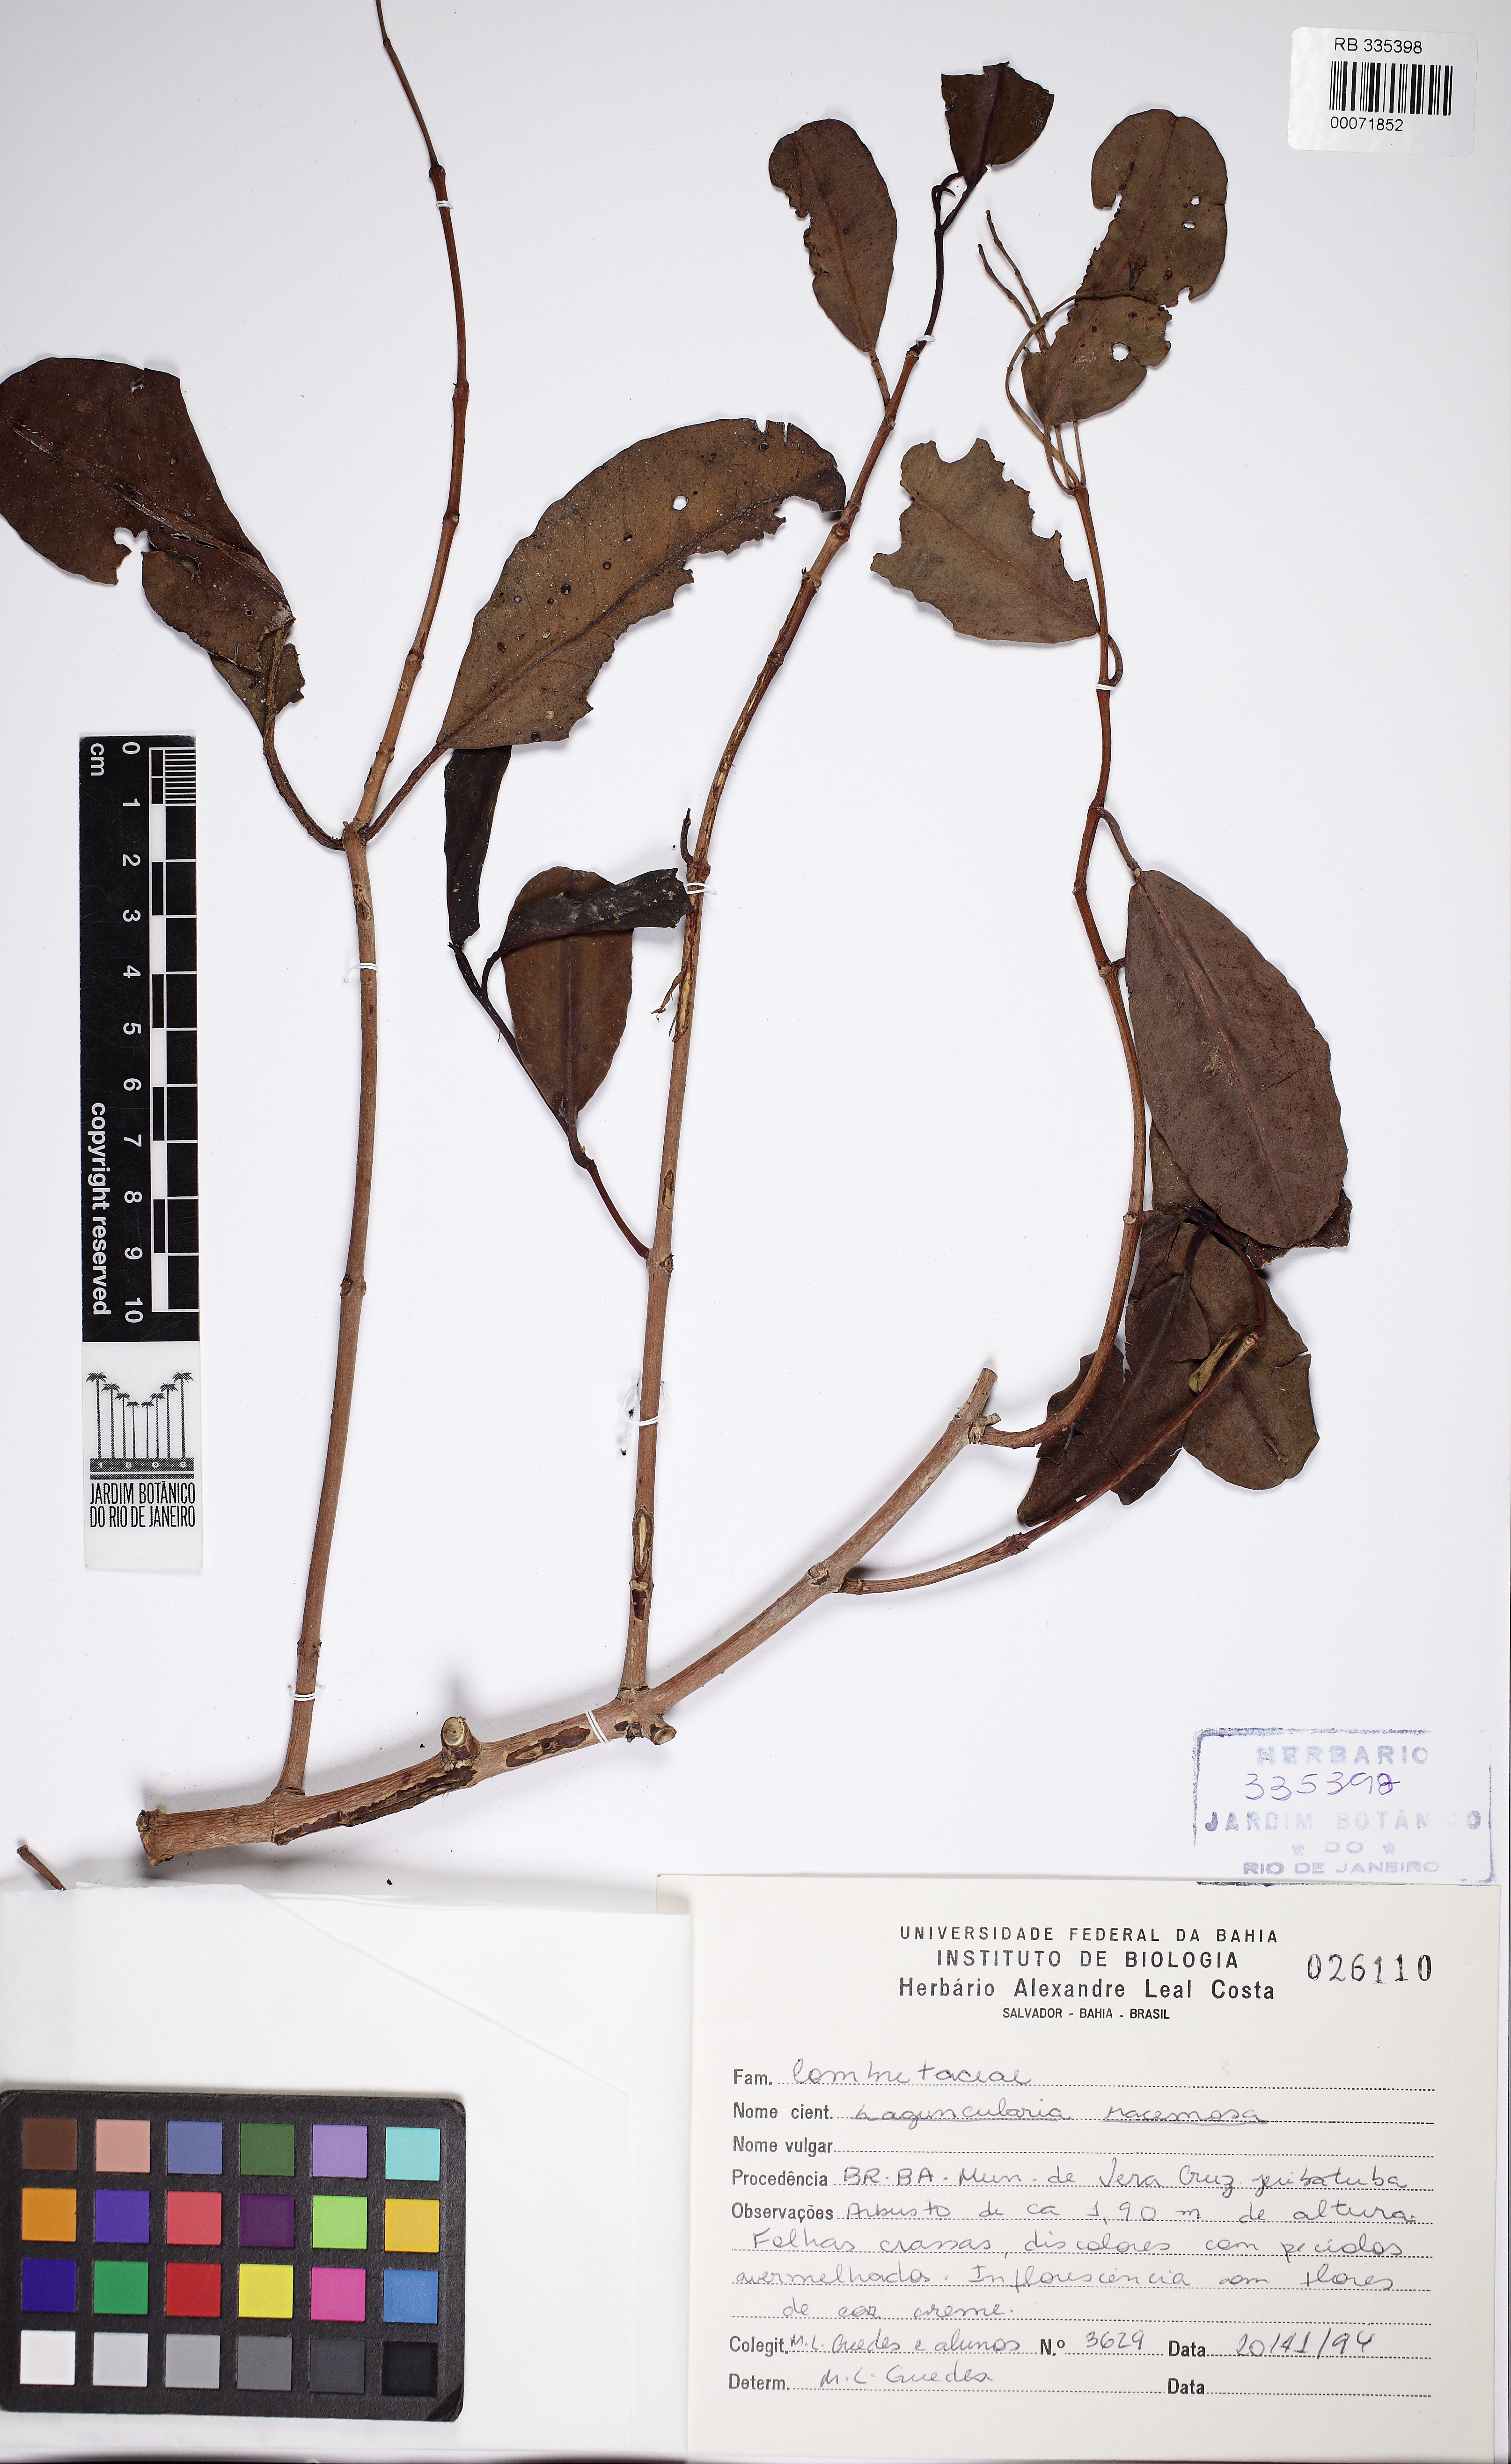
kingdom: Plantae
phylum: Tracheophyta
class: Magnoliopsida
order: Myrtales
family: Combretaceae
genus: Laguncularia
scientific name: Laguncularia racemosa
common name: White mangrove
